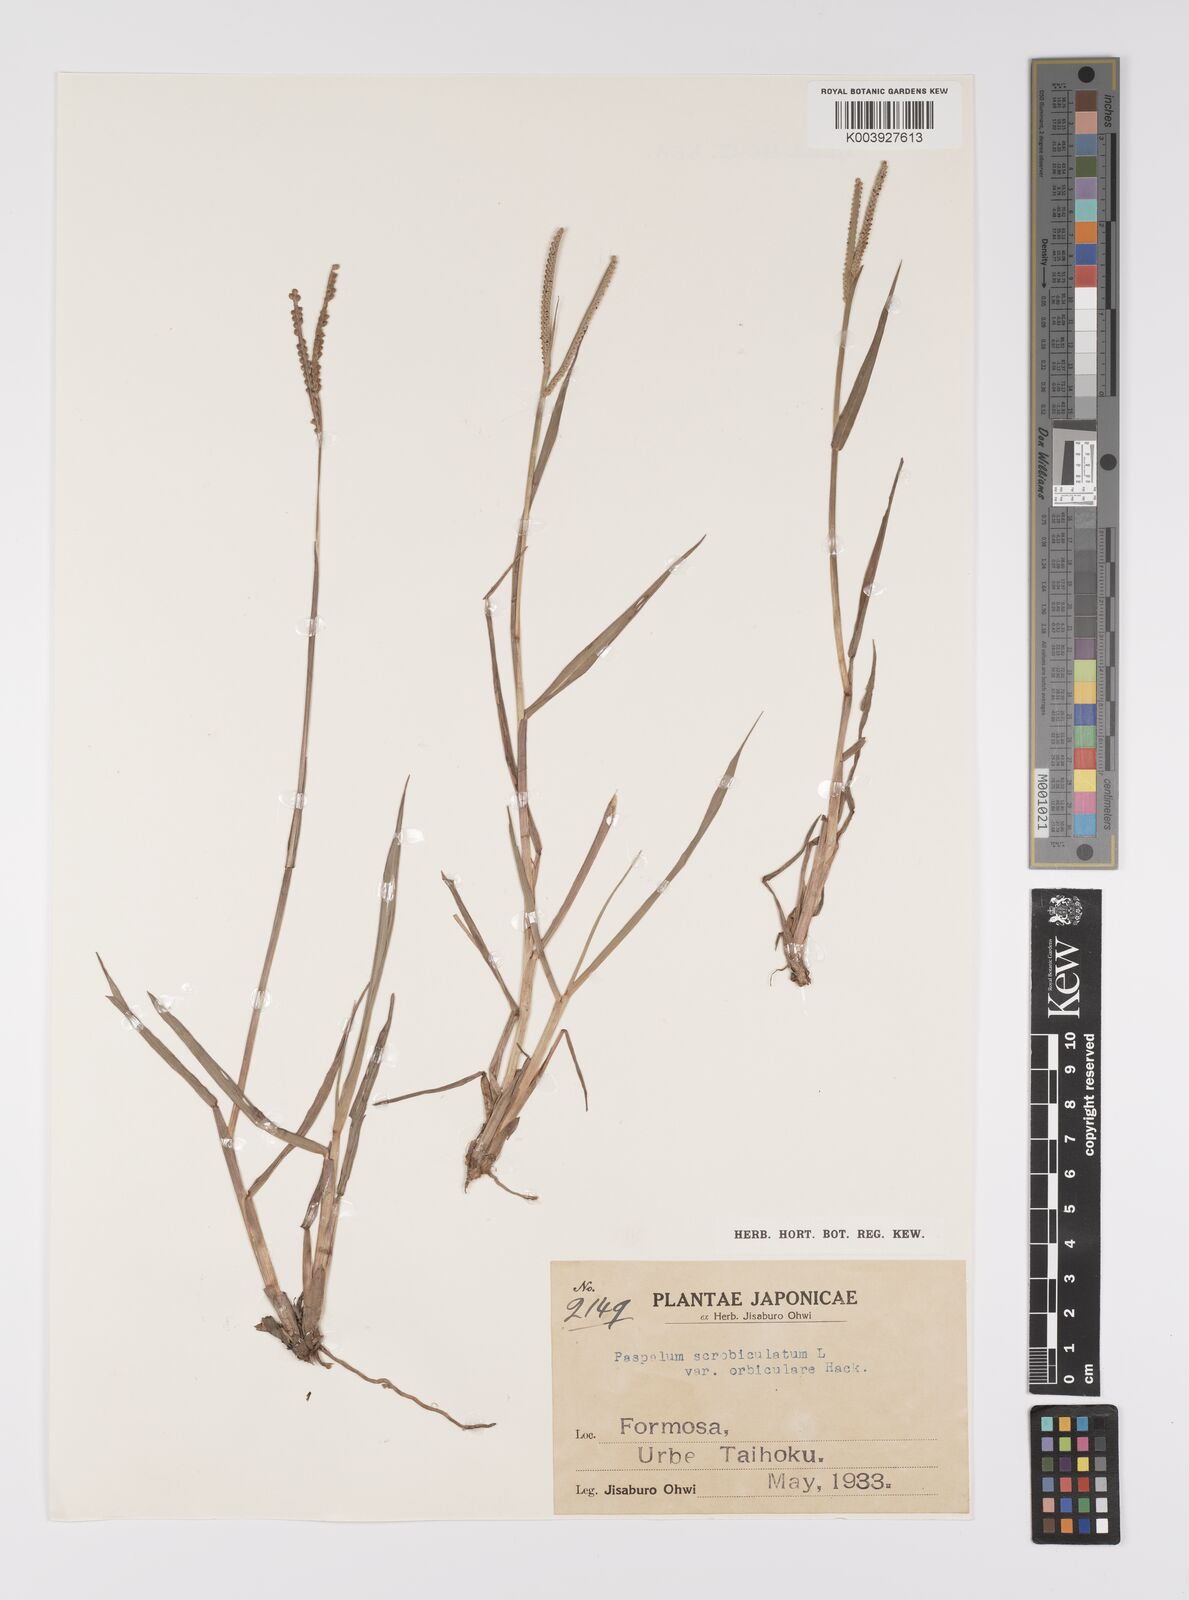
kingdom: Plantae
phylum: Tracheophyta
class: Liliopsida
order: Poales
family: Poaceae
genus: Paspalum
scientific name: Paspalum scrobiculatum
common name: Kodo millet
